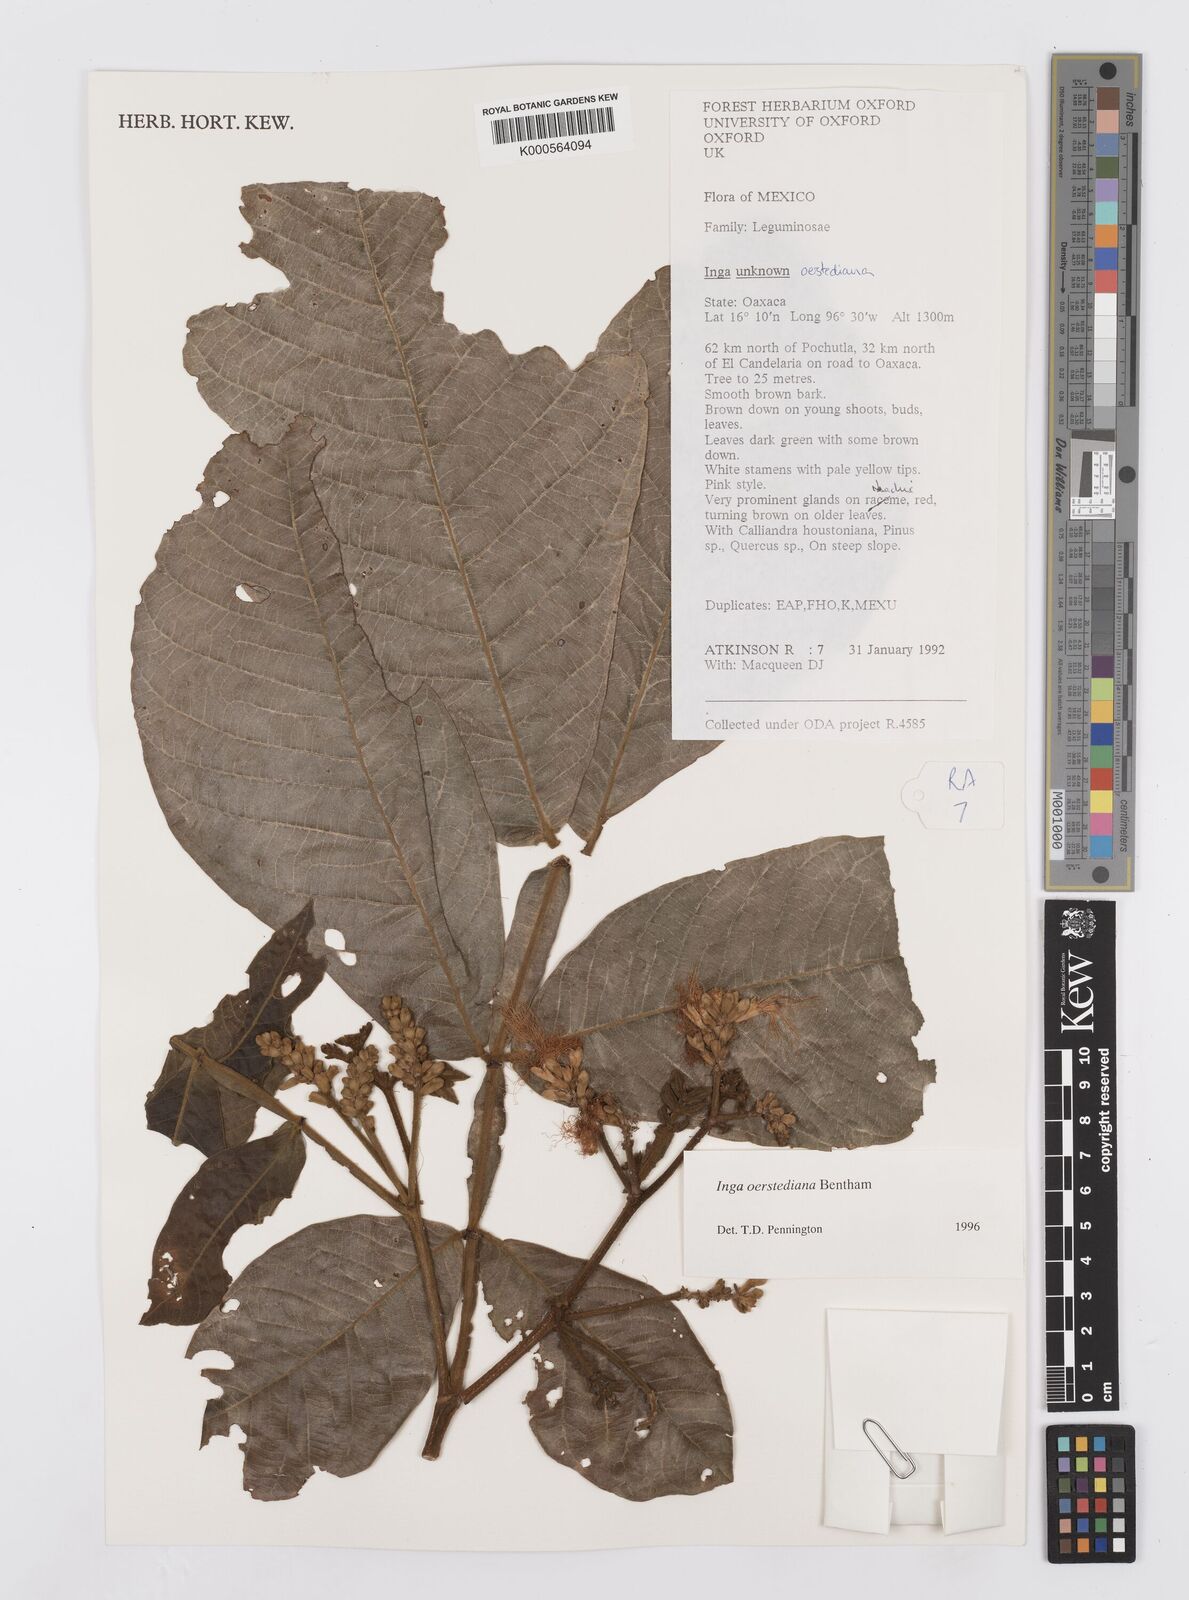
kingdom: Plantae
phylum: Tracheophyta
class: Magnoliopsida
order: Fabales
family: Fabaceae
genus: Inga
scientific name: Inga oerstediana
